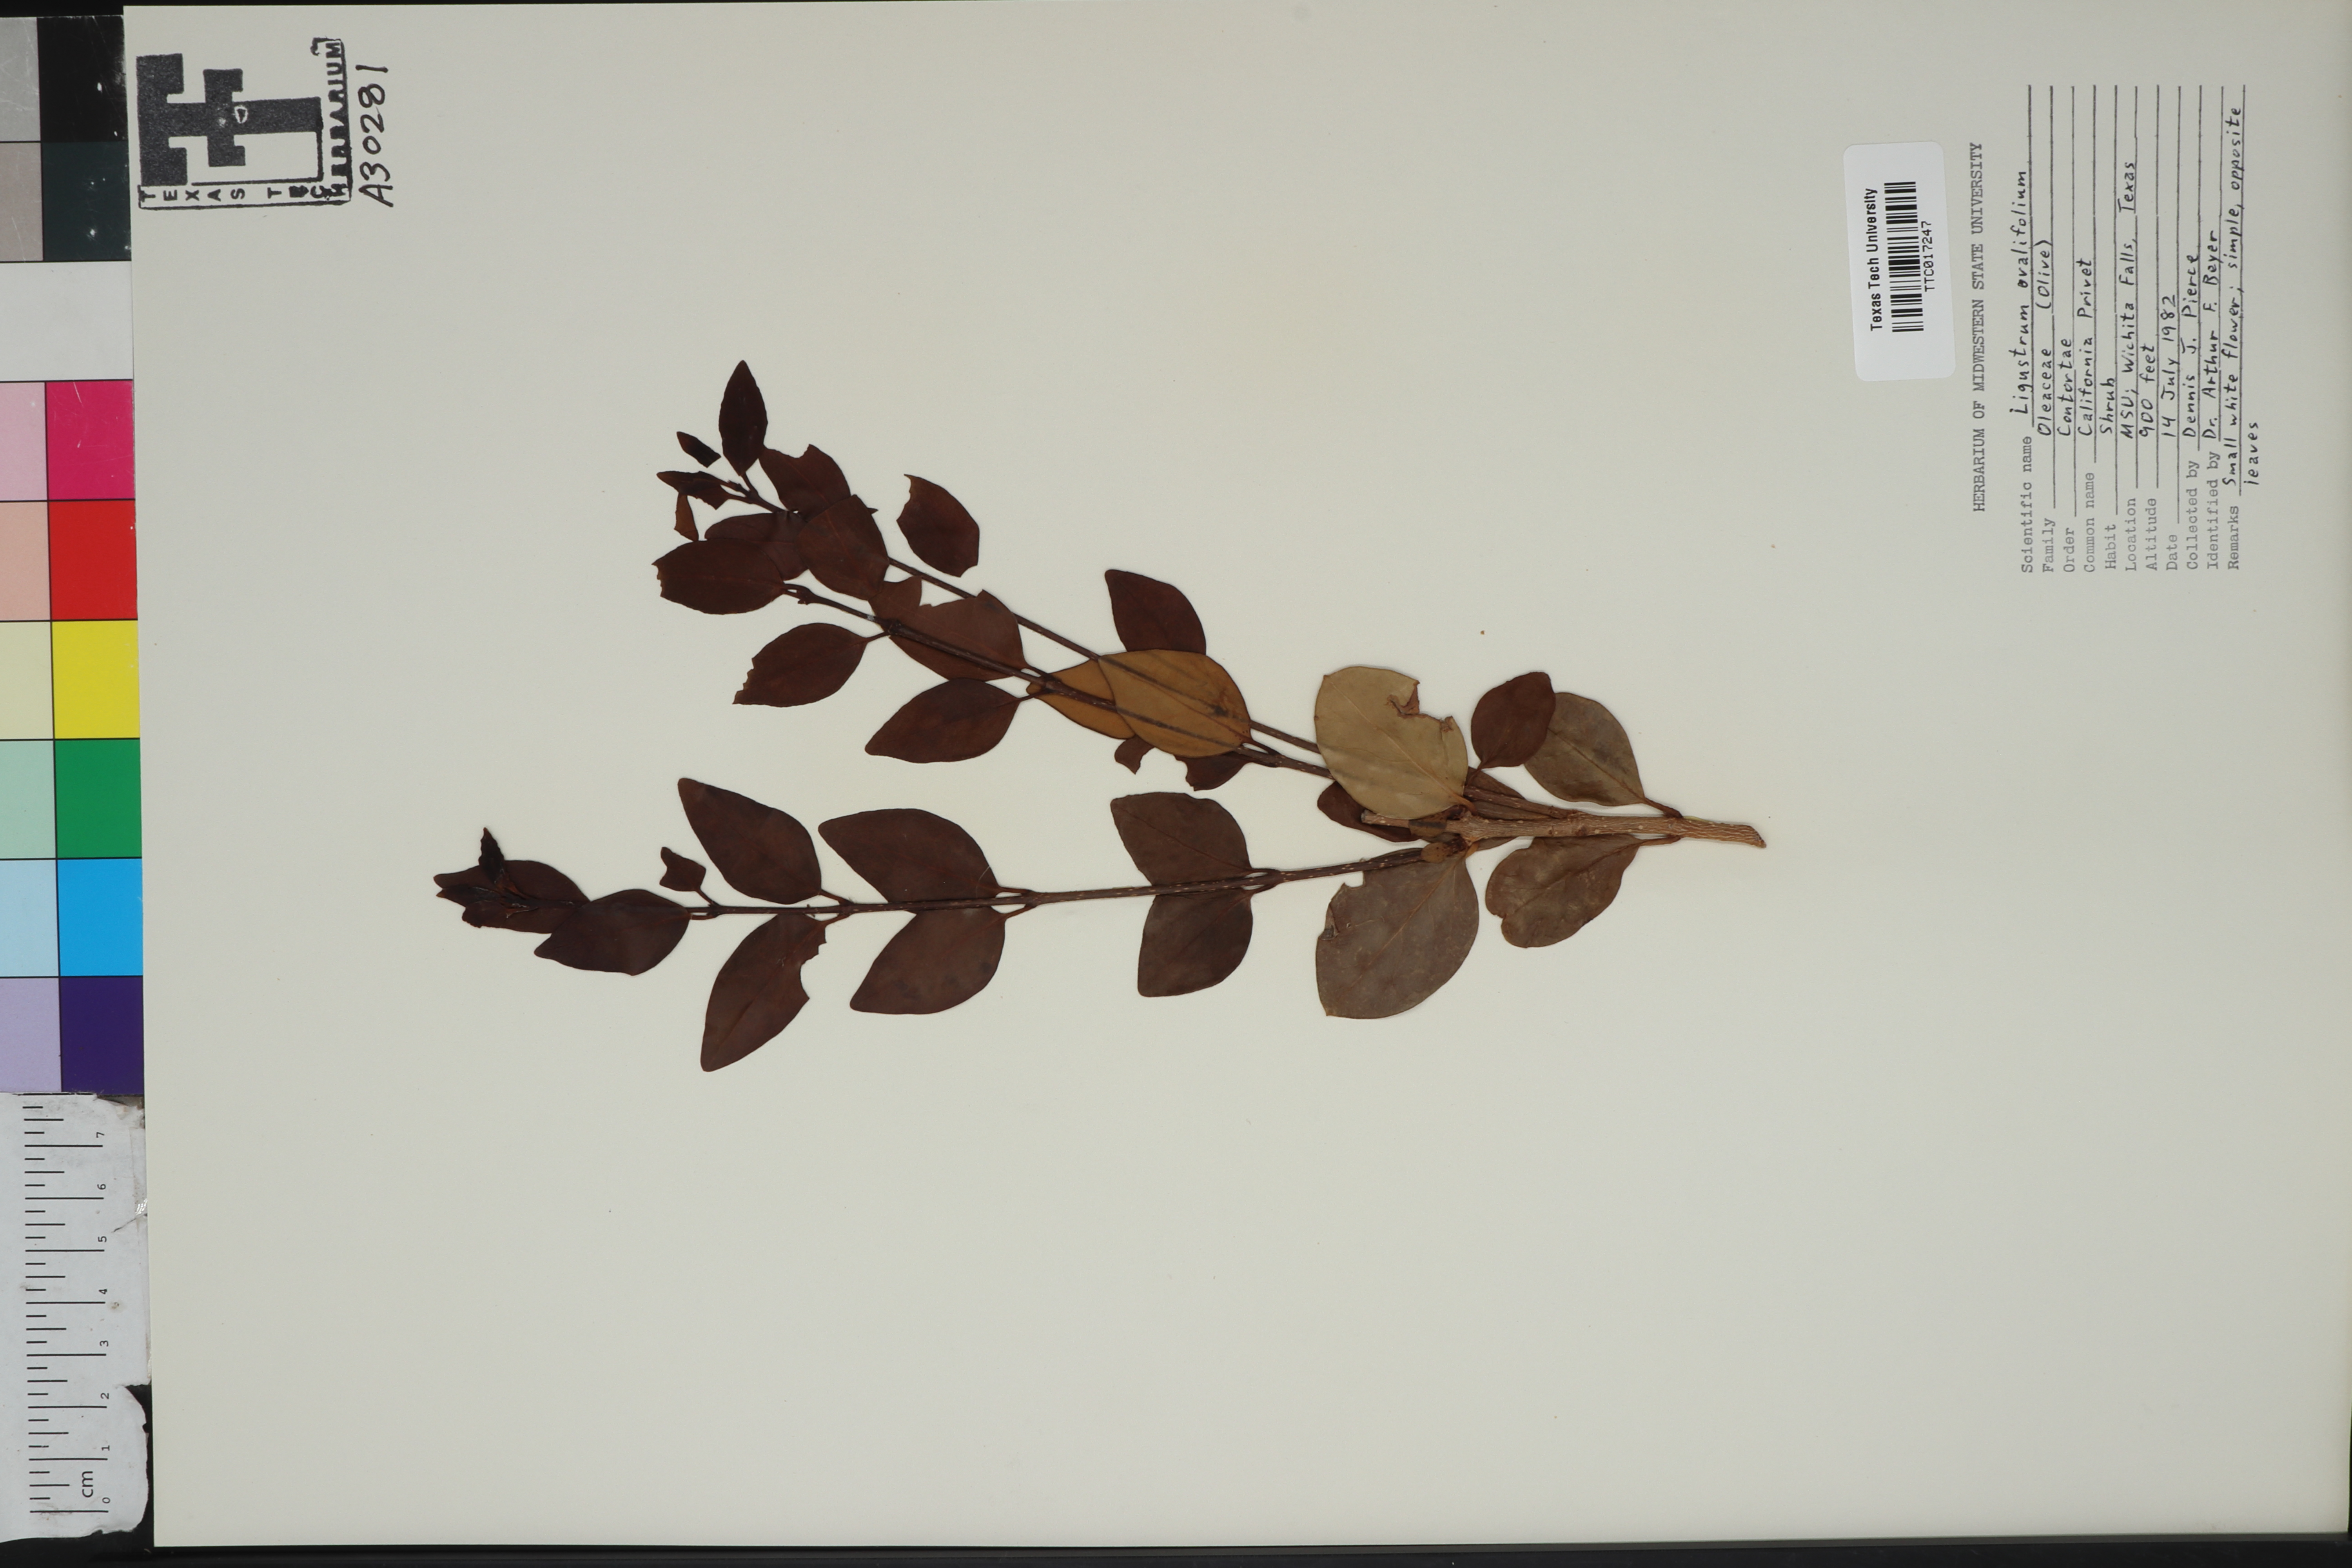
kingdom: Plantae
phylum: Tracheophyta
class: Magnoliopsida
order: Lamiales
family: Oleaceae
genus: Ligustrum
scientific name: Ligustrum ovalifolium
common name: California privet
